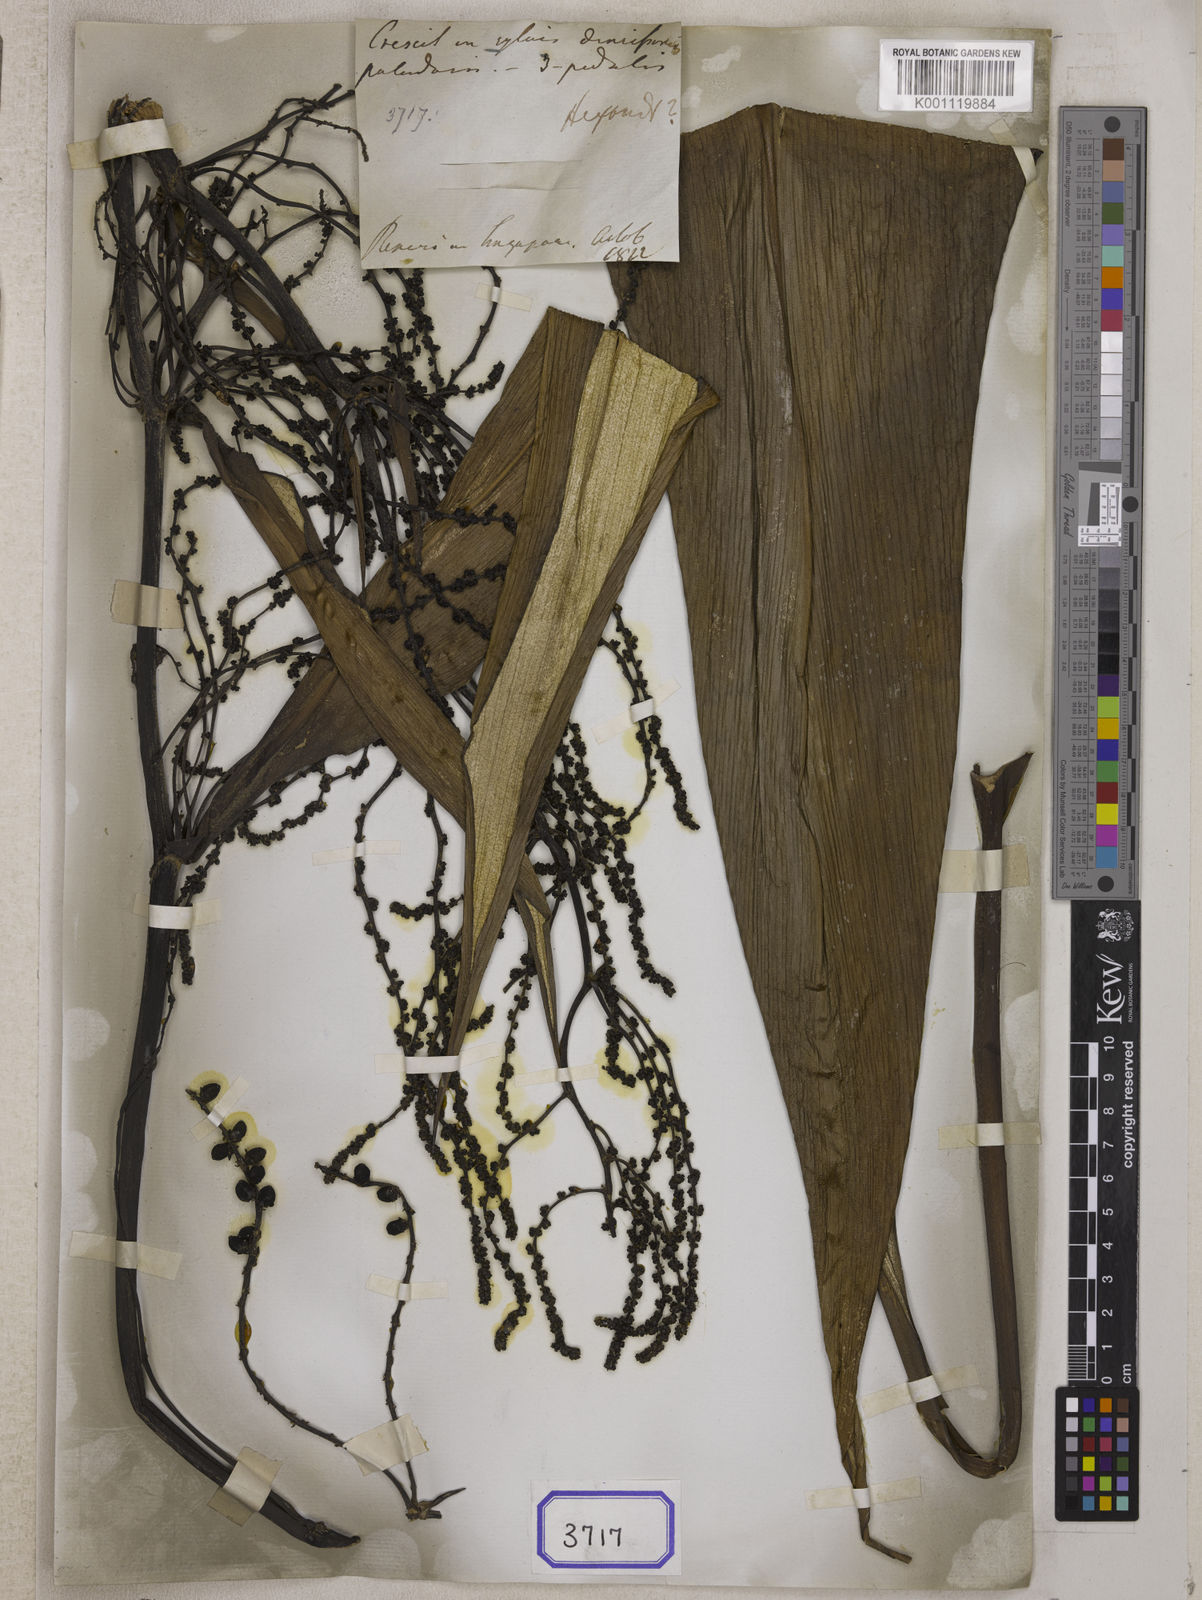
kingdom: Plantae
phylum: Tracheophyta
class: Liliopsida
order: Commelinales
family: Hanguanaceae
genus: Hanguana
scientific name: Hanguana malayana
